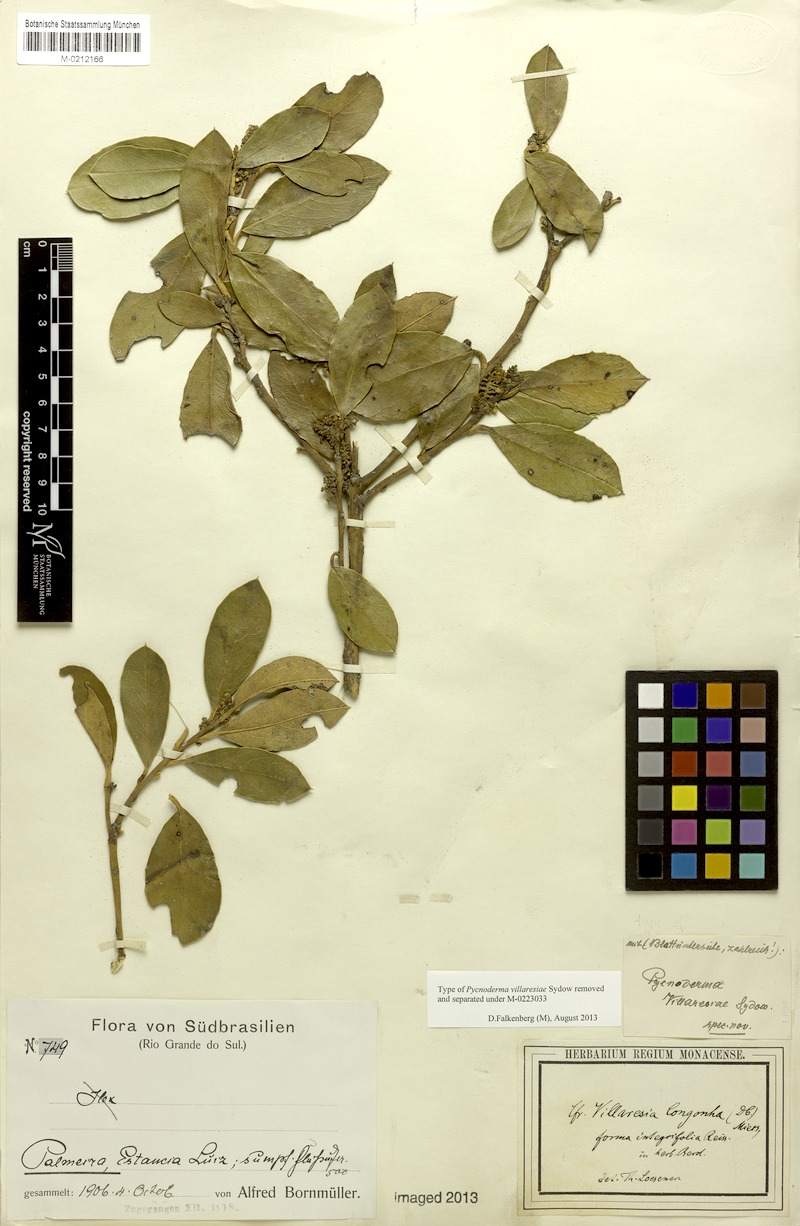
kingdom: Plantae
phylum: Tracheophyta
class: Magnoliopsida
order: Cardiopteridales
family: Cardiopteridaceae
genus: Citronella
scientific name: Citronella gongonha
